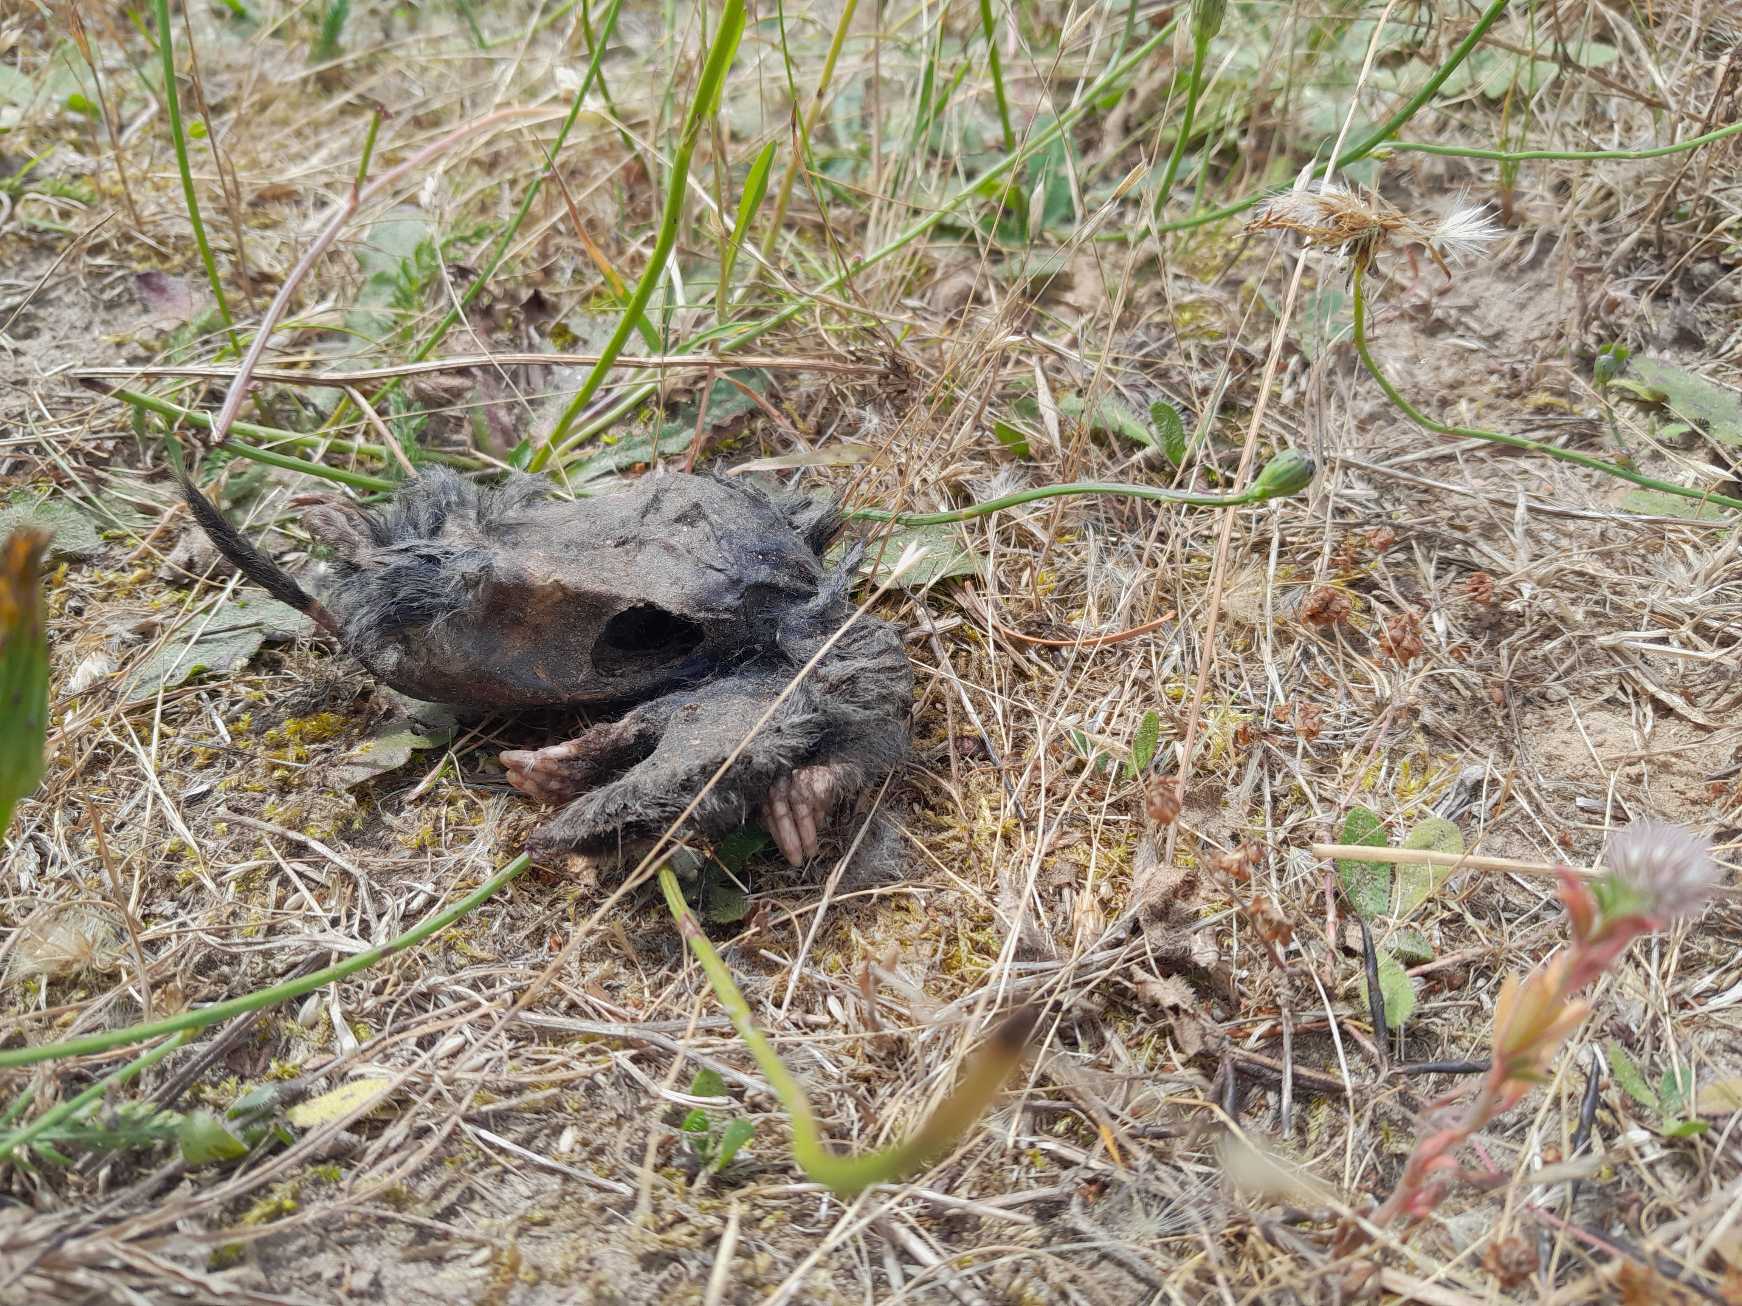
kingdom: Animalia
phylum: Chordata
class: Mammalia
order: Soricomorpha
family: Talpidae
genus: Talpa
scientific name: Talpa europaea
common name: Muldvarp
